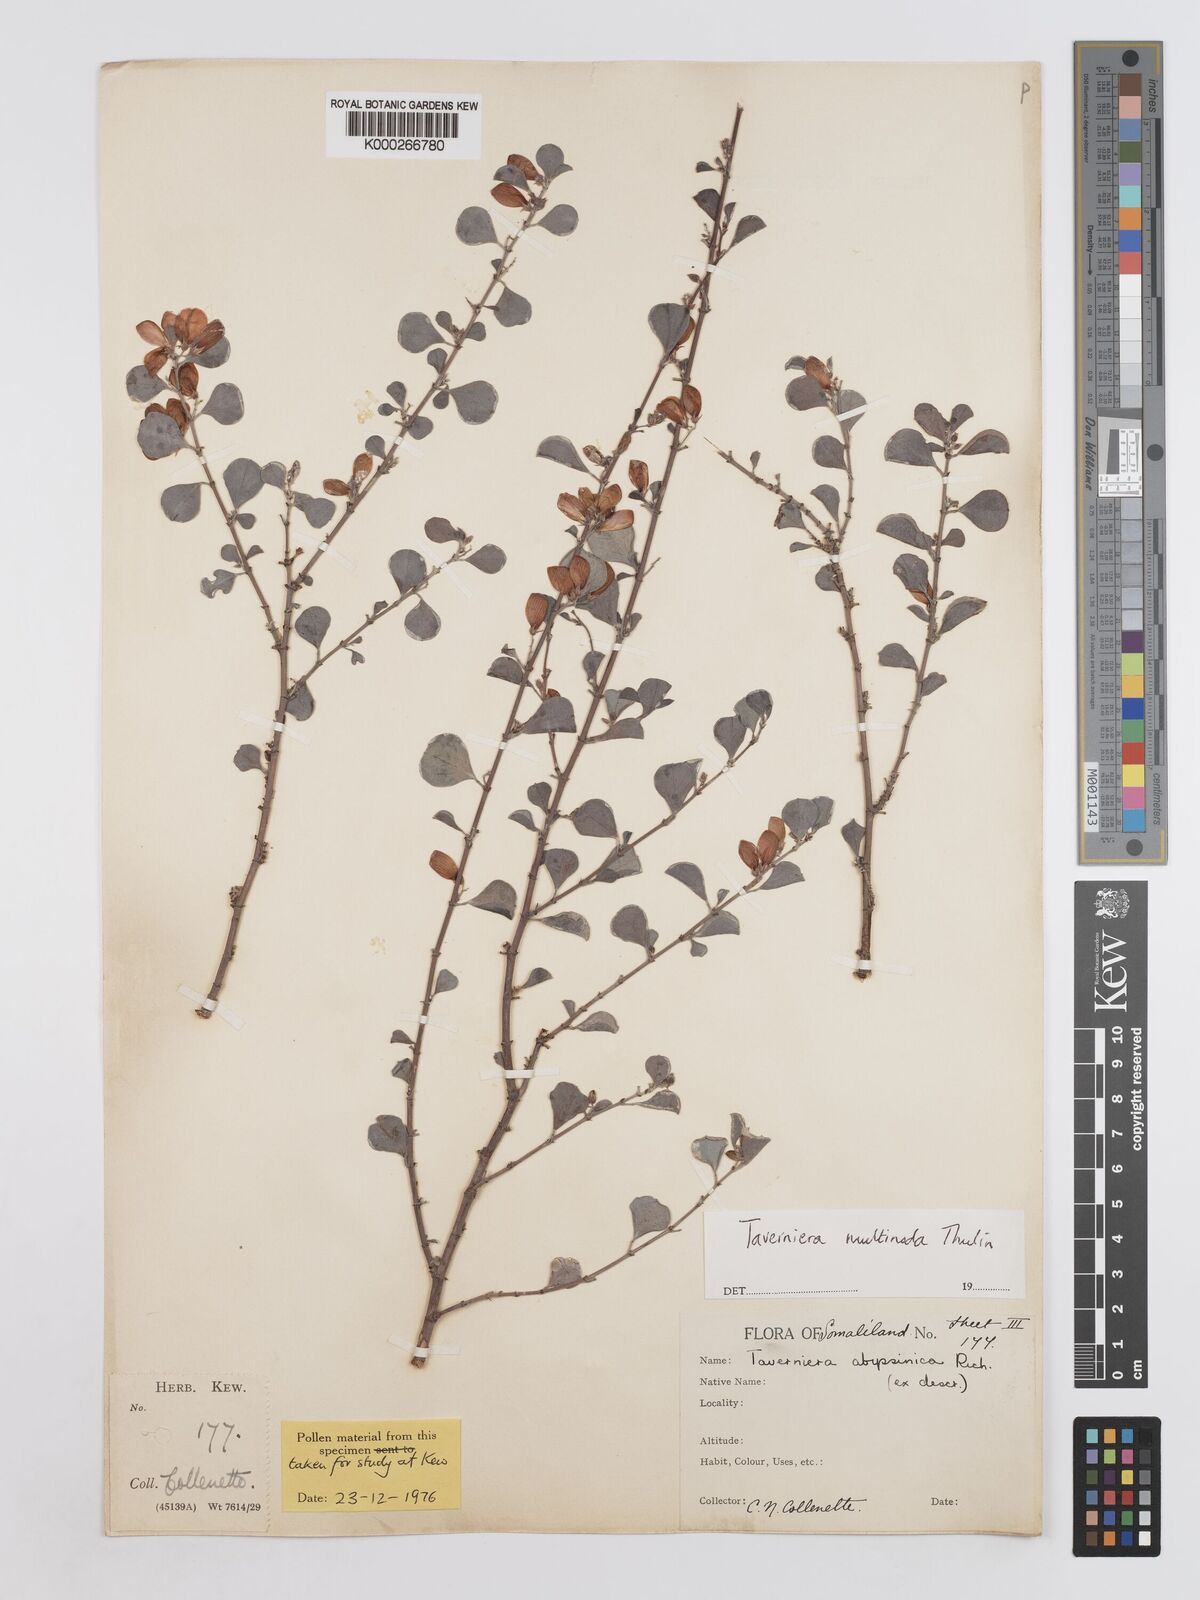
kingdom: Plantae
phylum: Tracheophyta
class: Magnoliopsida
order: Fabales
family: Fabaceae
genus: Taverniera
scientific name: Taverniera multinoda
